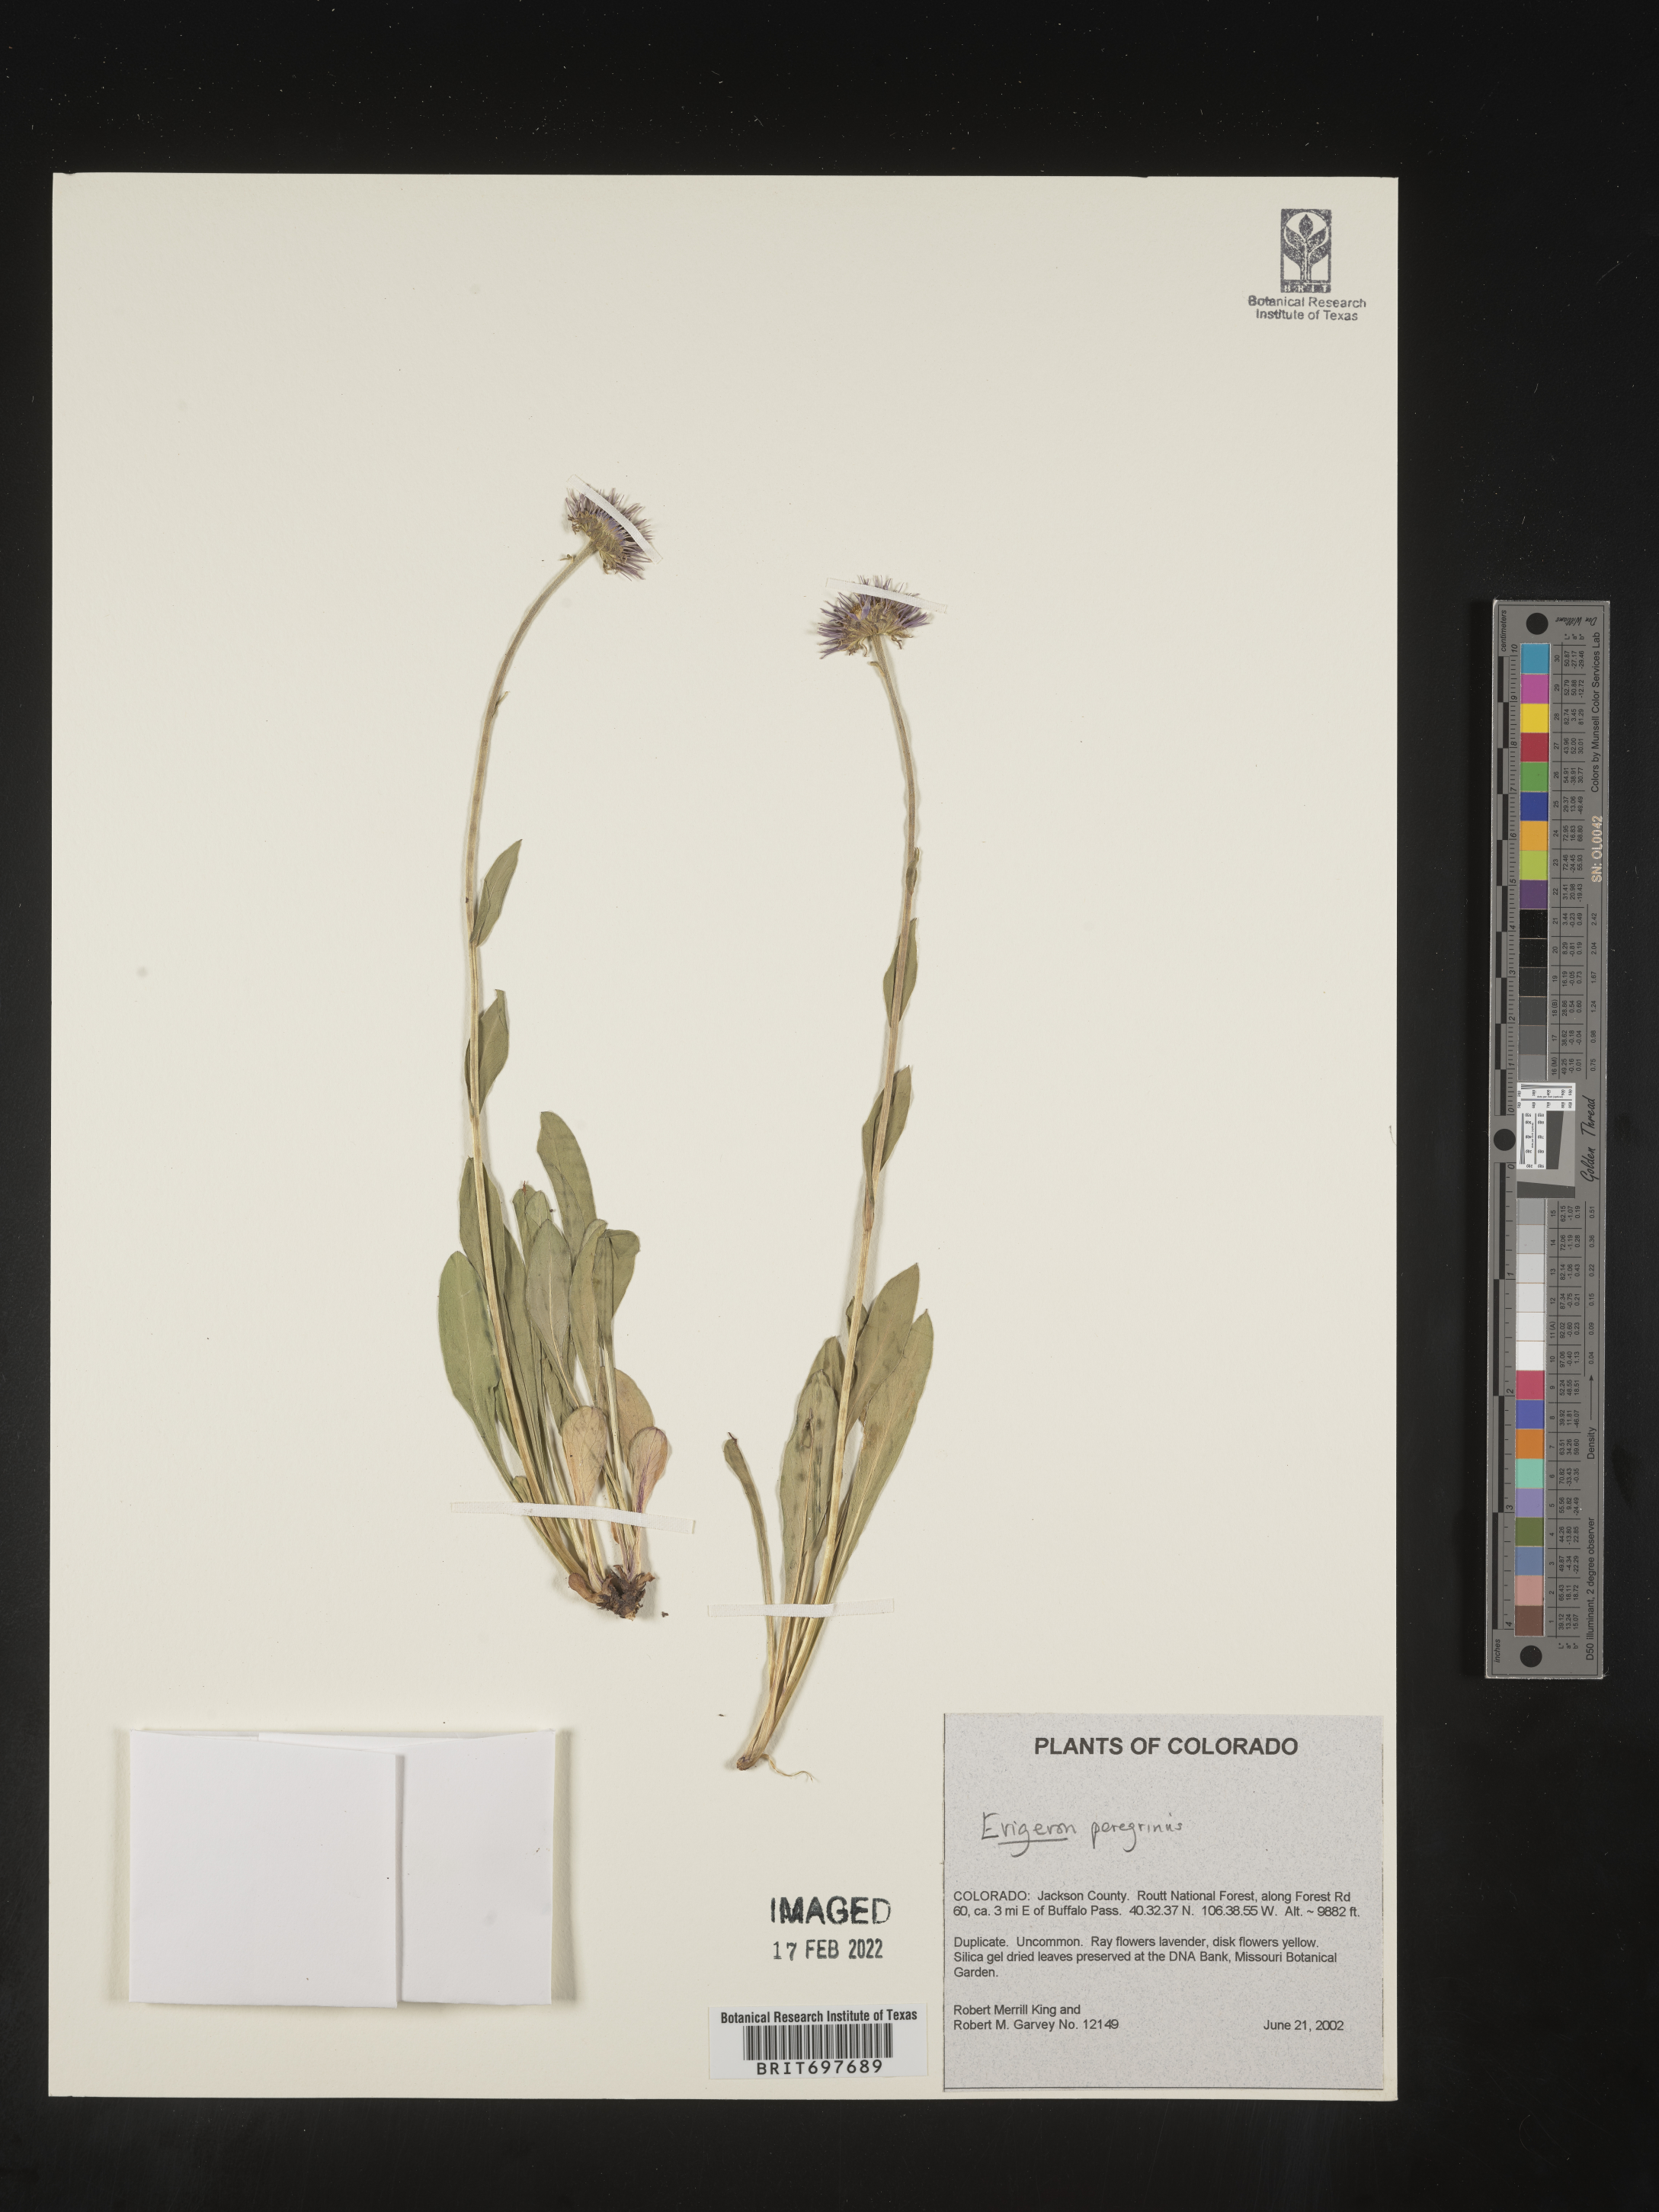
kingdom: Plantae
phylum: Tracheophyta
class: Magnoliopsida
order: Asterales
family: Asteraceae
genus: Erigeron
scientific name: Erigeron glacialis
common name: Subalpine fleabane
